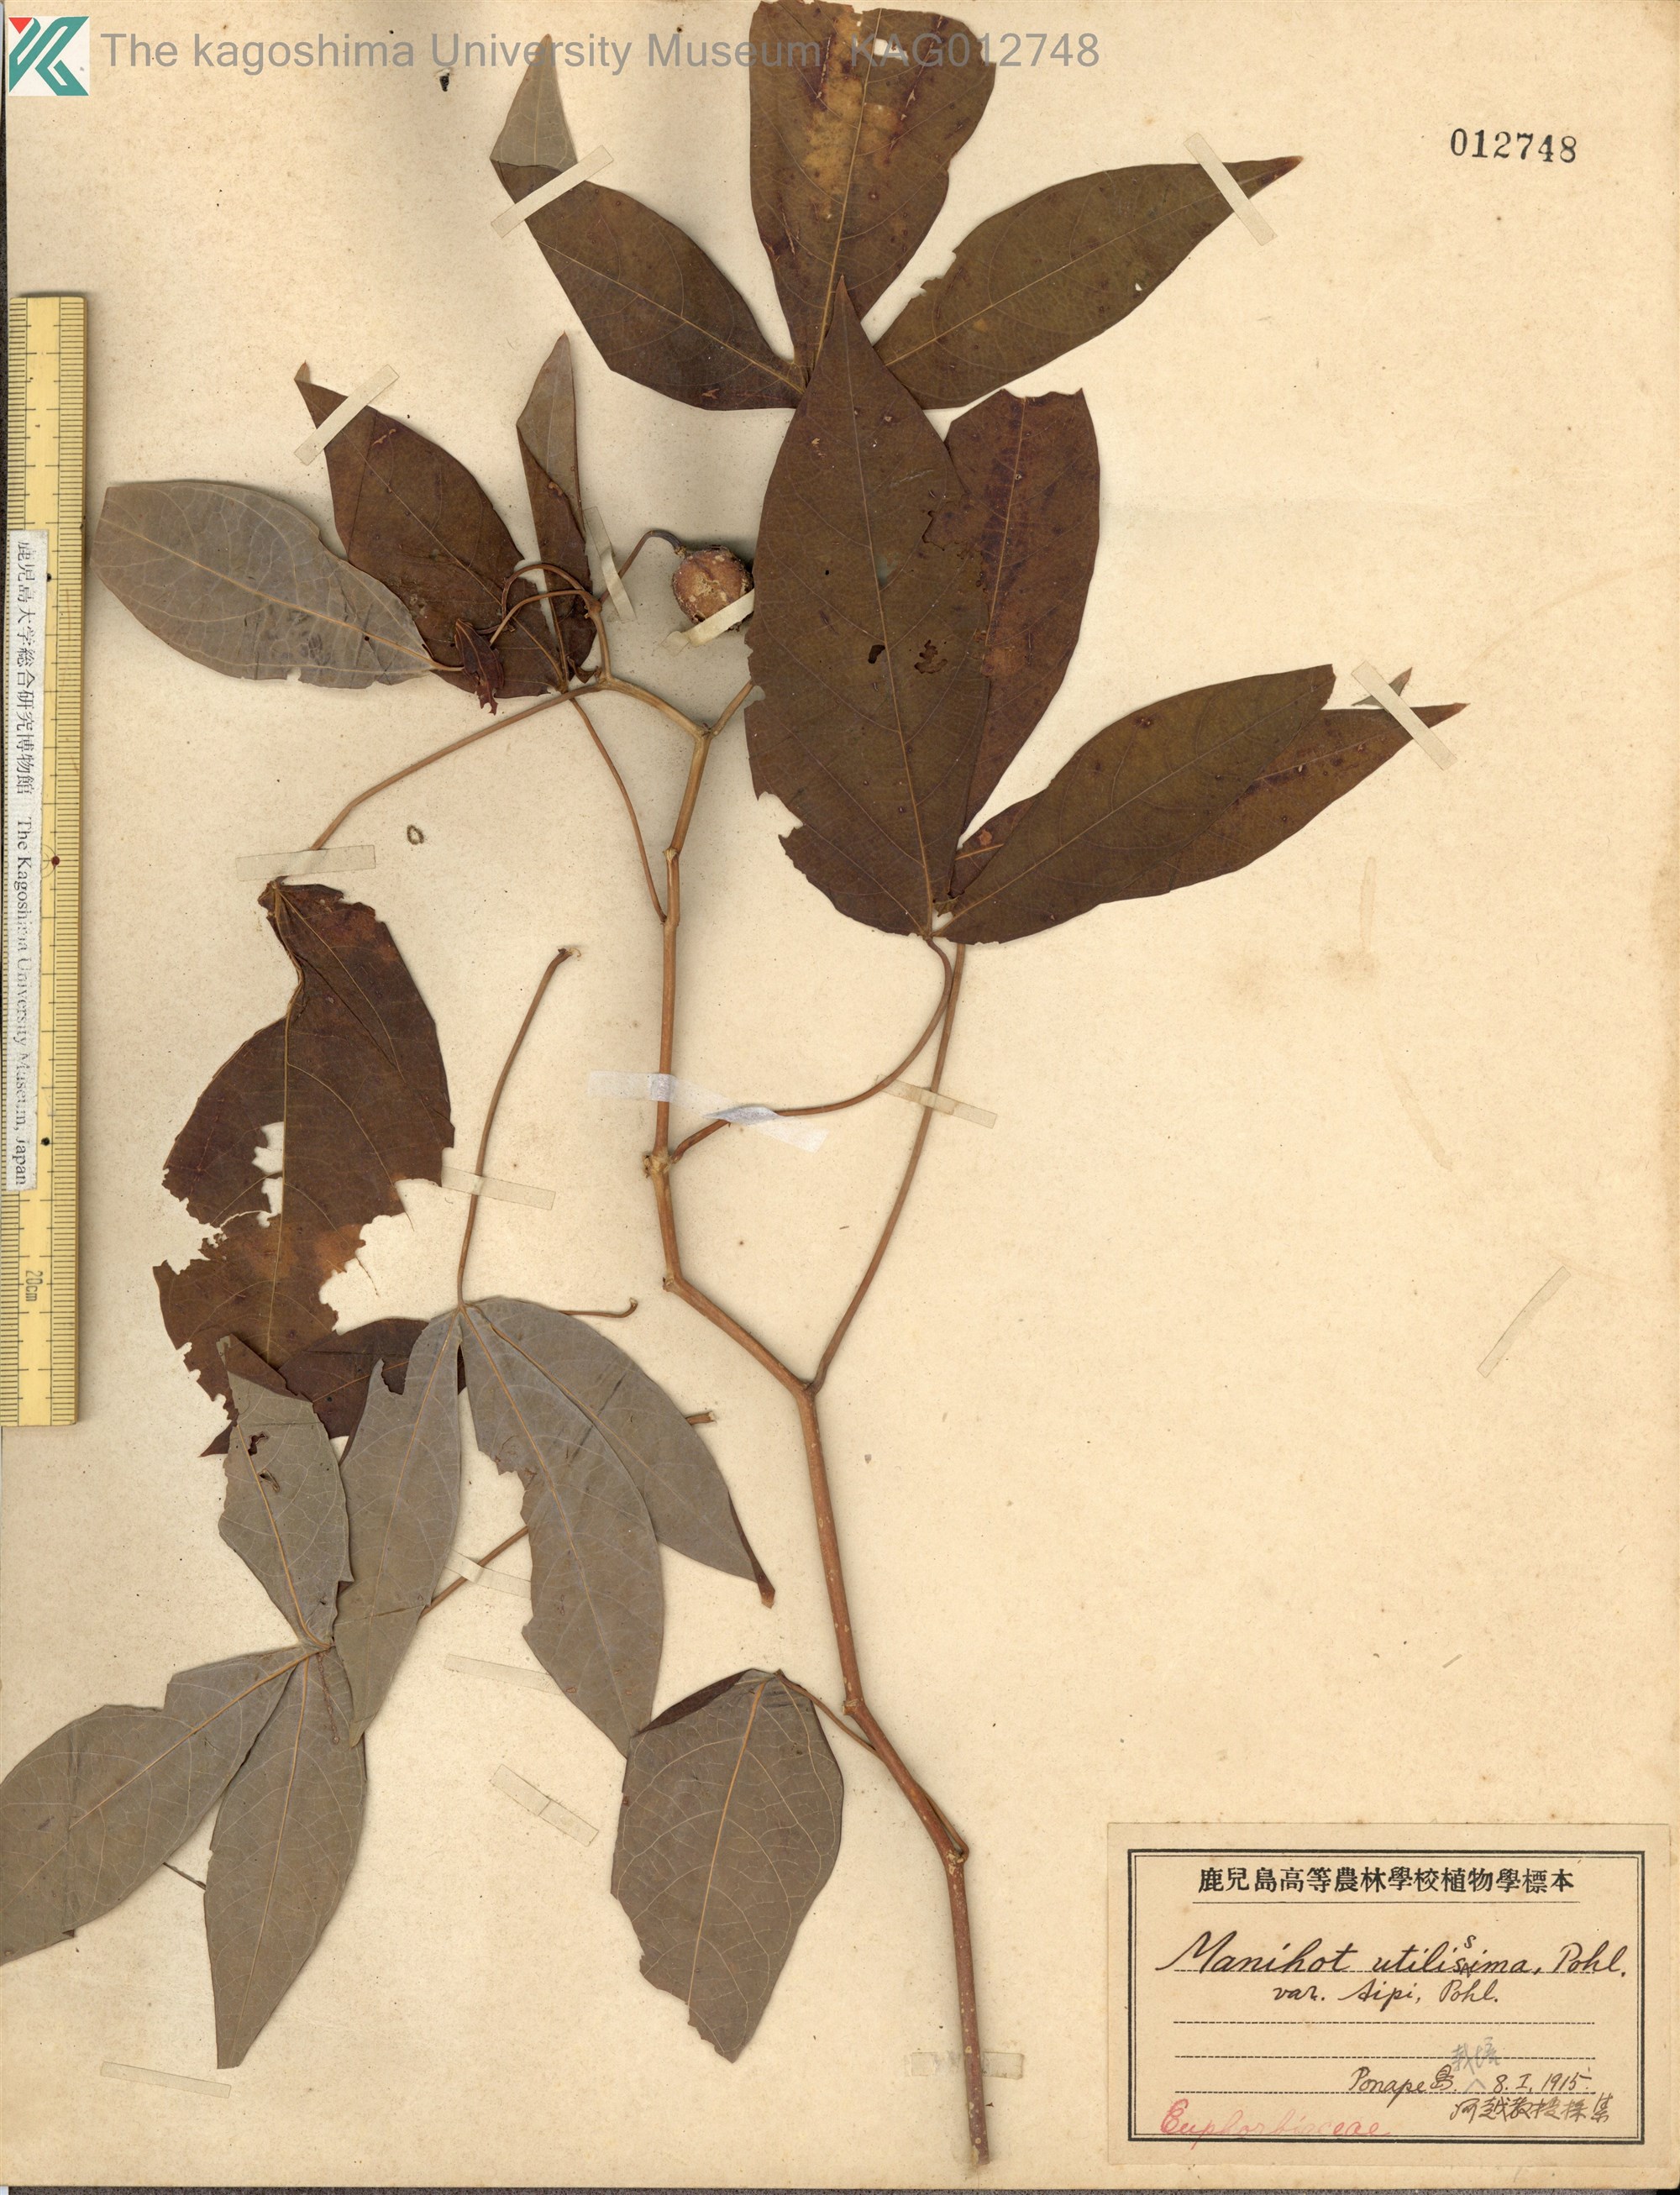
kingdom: Plantae
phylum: Tracheophyta
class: Magnoliopsida
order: Malpighiales
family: Euphorbiaceae
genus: Manihot
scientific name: Manihot esculenta
